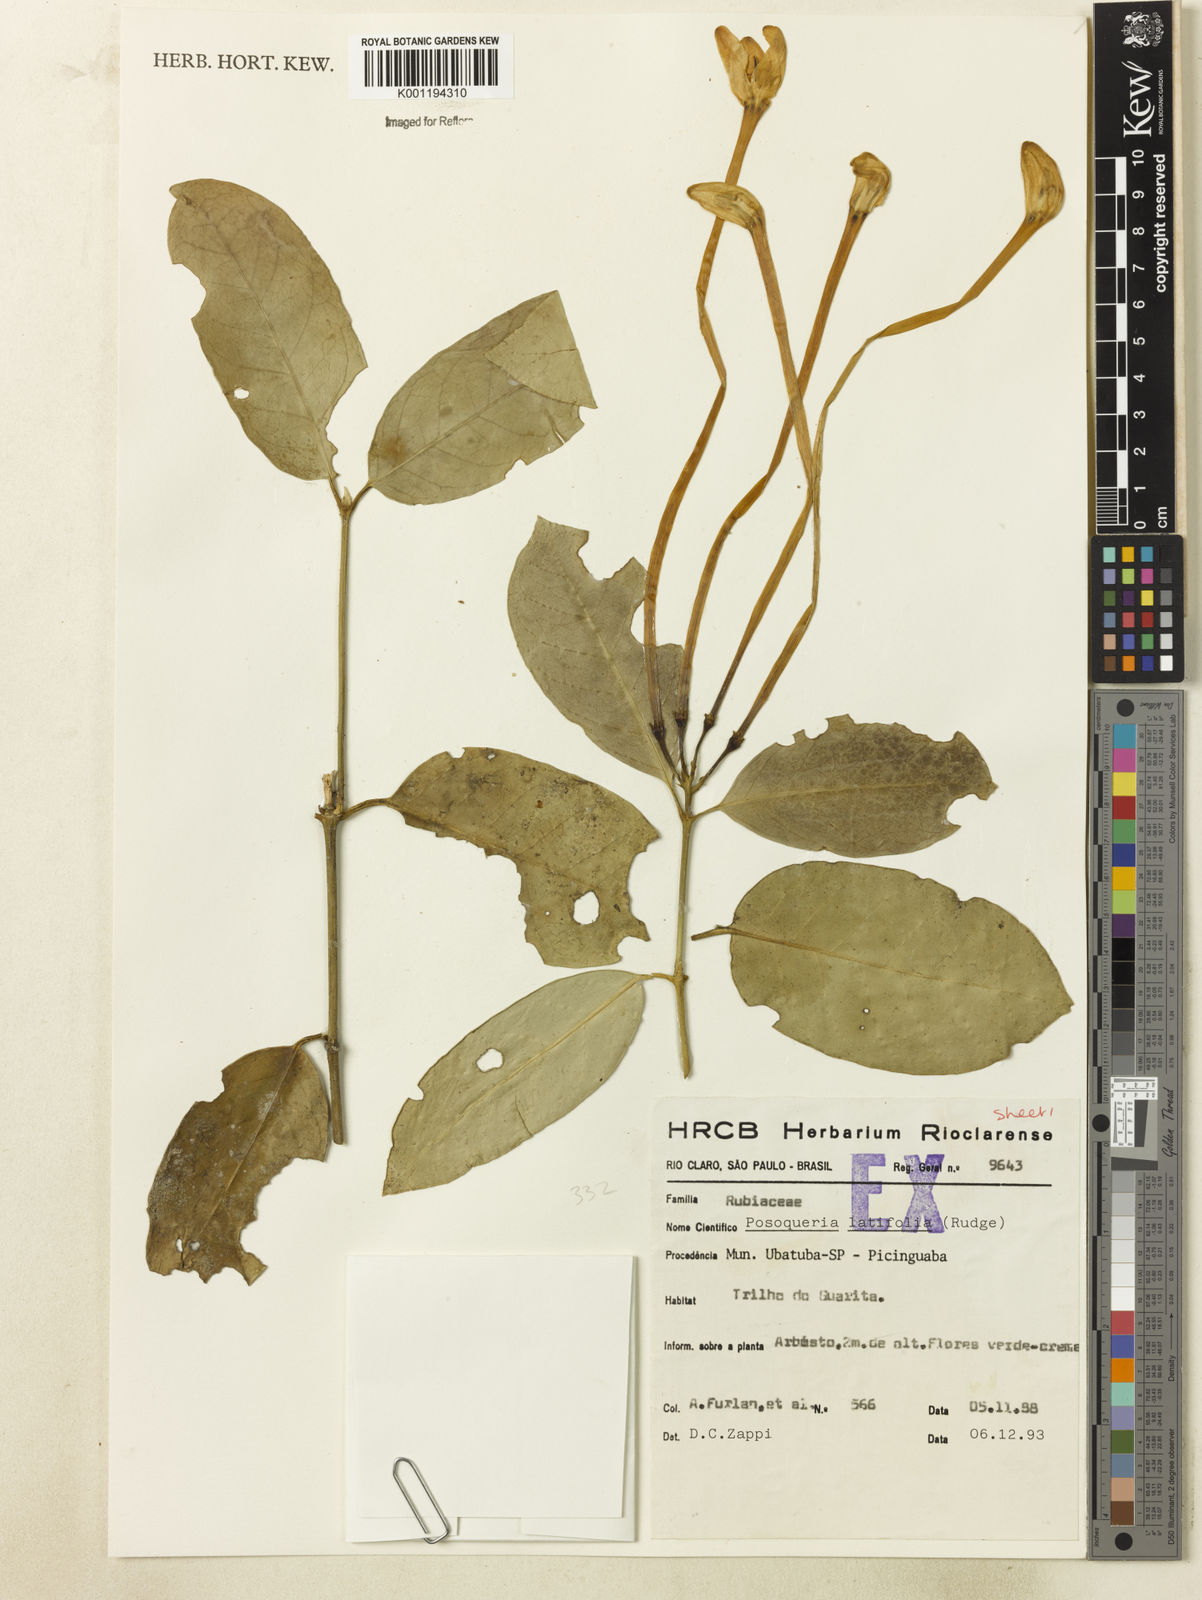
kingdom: Plantae
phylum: Tracheophyta
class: Magnoliopsida
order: Gentianales
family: Rubiaceae
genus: Posoqueria
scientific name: Posoqueria latifolia
